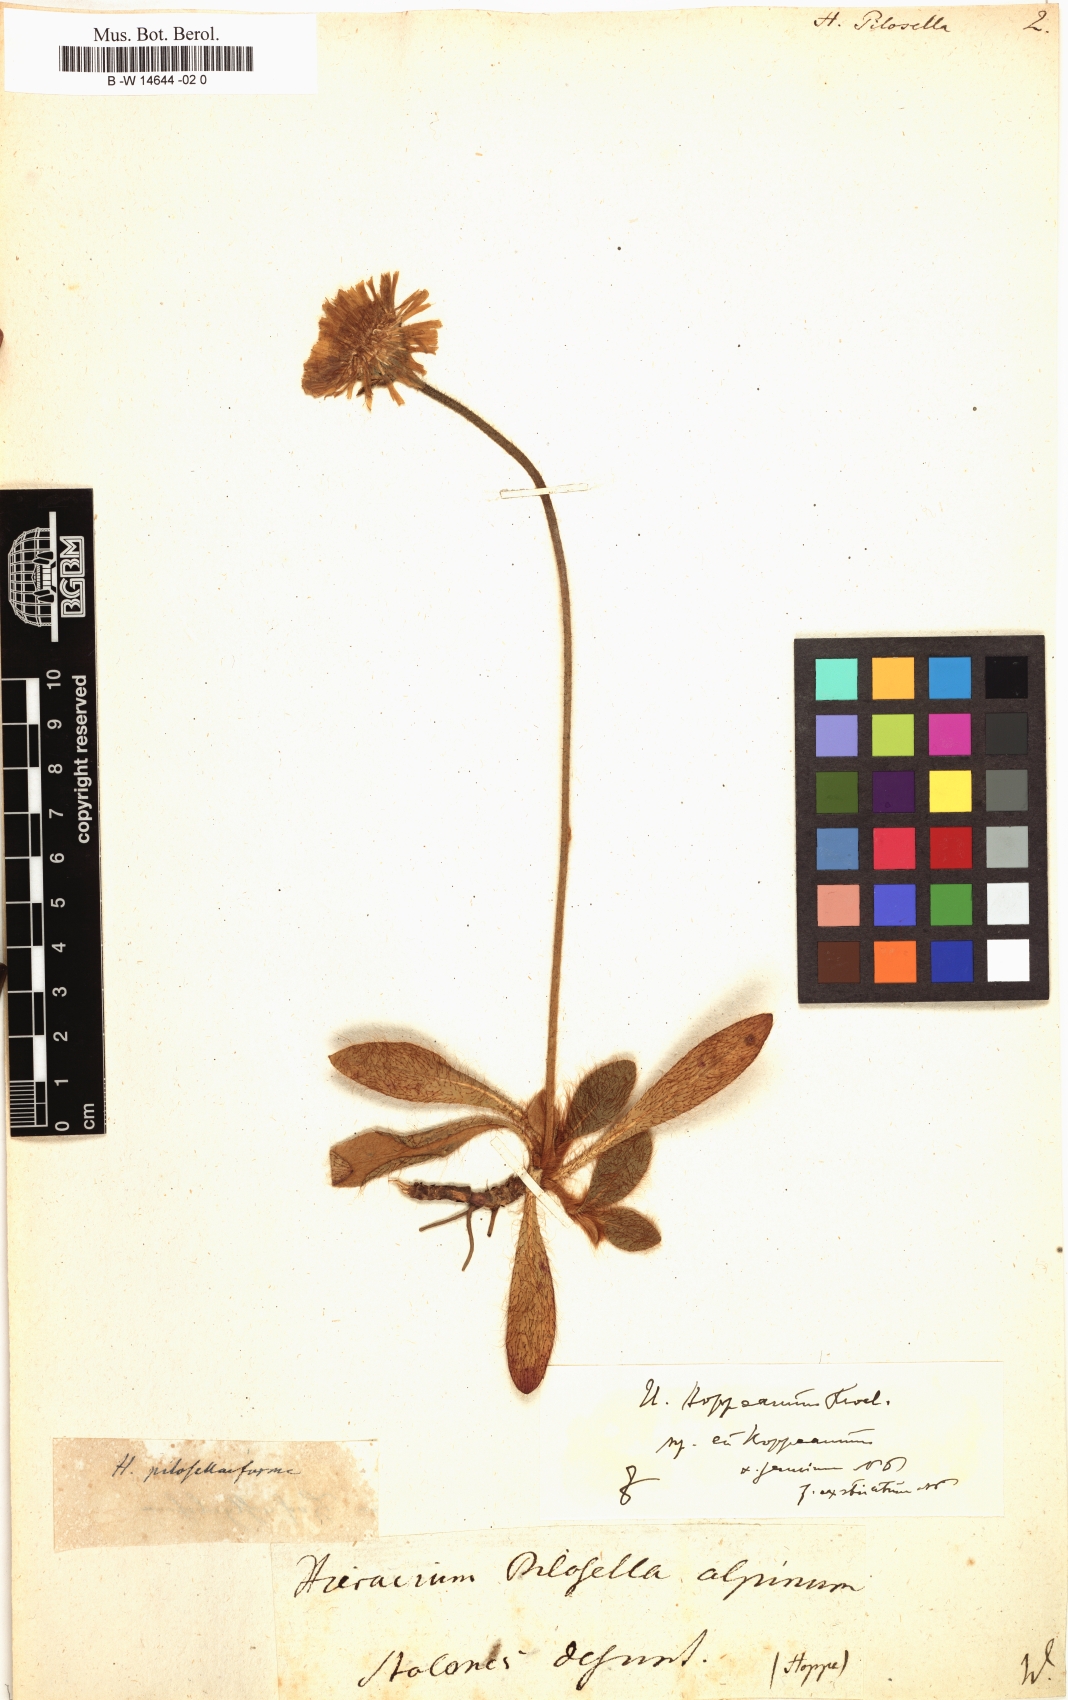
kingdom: Plantae
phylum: Tracheophyta
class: Magnoliopsida
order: Asterales
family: Asteraceae
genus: Pilosella
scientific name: Pilosella officinarum
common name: Mouse-ear hawkweed
